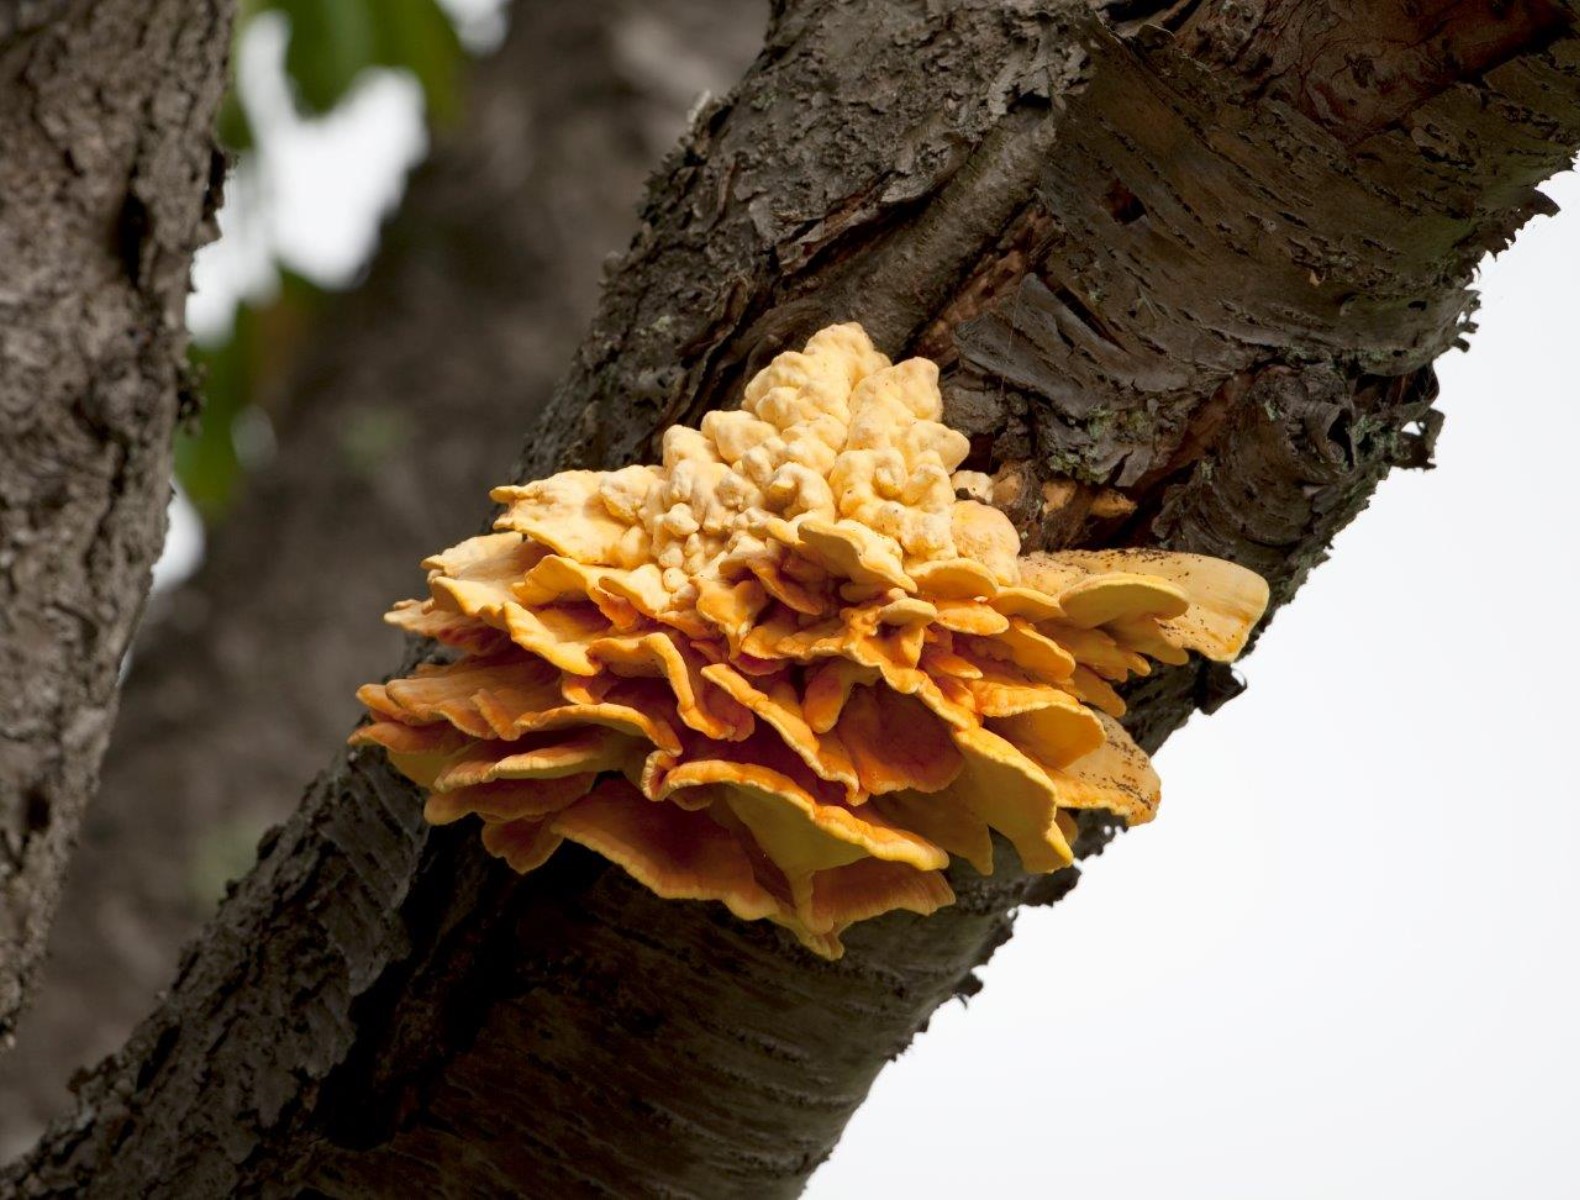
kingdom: Fungi
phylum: Basidiomycota
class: Agaricomycetes
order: Polyporales
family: Laetiporaceae
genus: Laetiporus
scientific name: Laetiporus sulphureus
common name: svovlporesvamp
